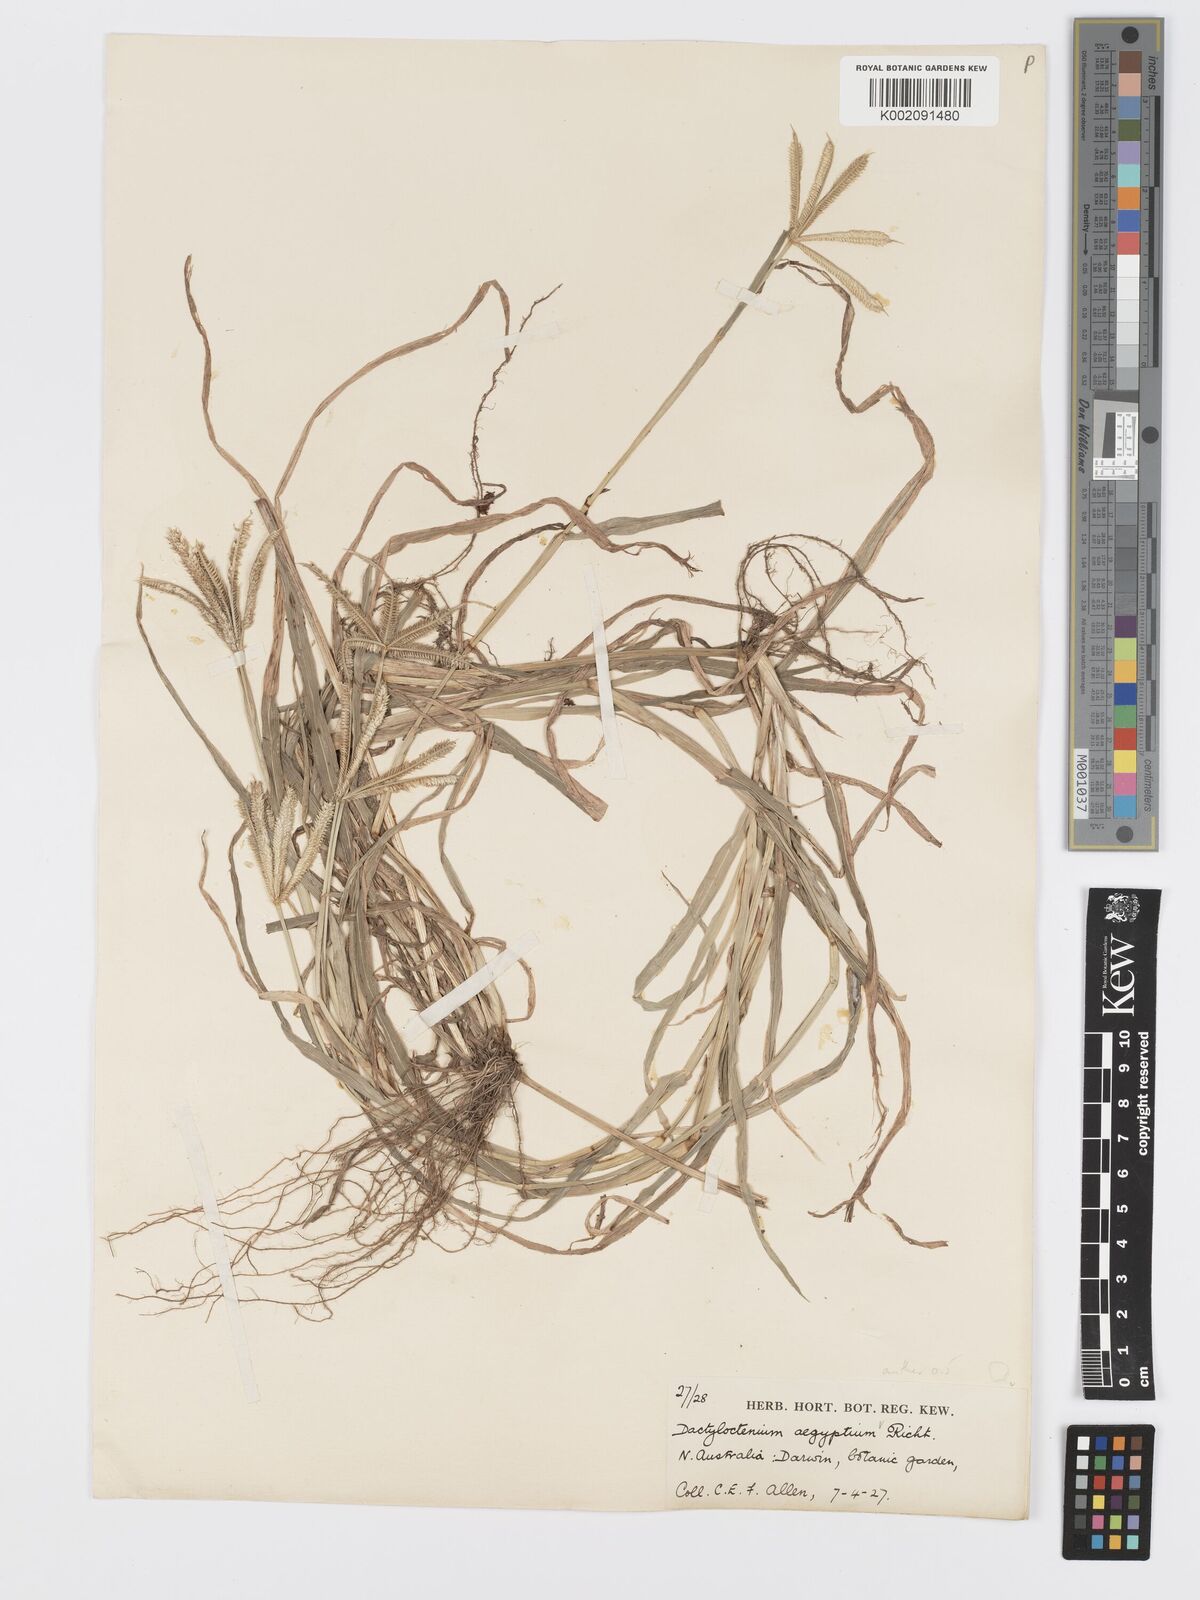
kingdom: Plantae
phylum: Tracheophyta
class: Liliopsida
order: Poales
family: Poaceae
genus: Dactyloctenium
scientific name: Dactyloctenium aegyptium
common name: Egyptian grass
